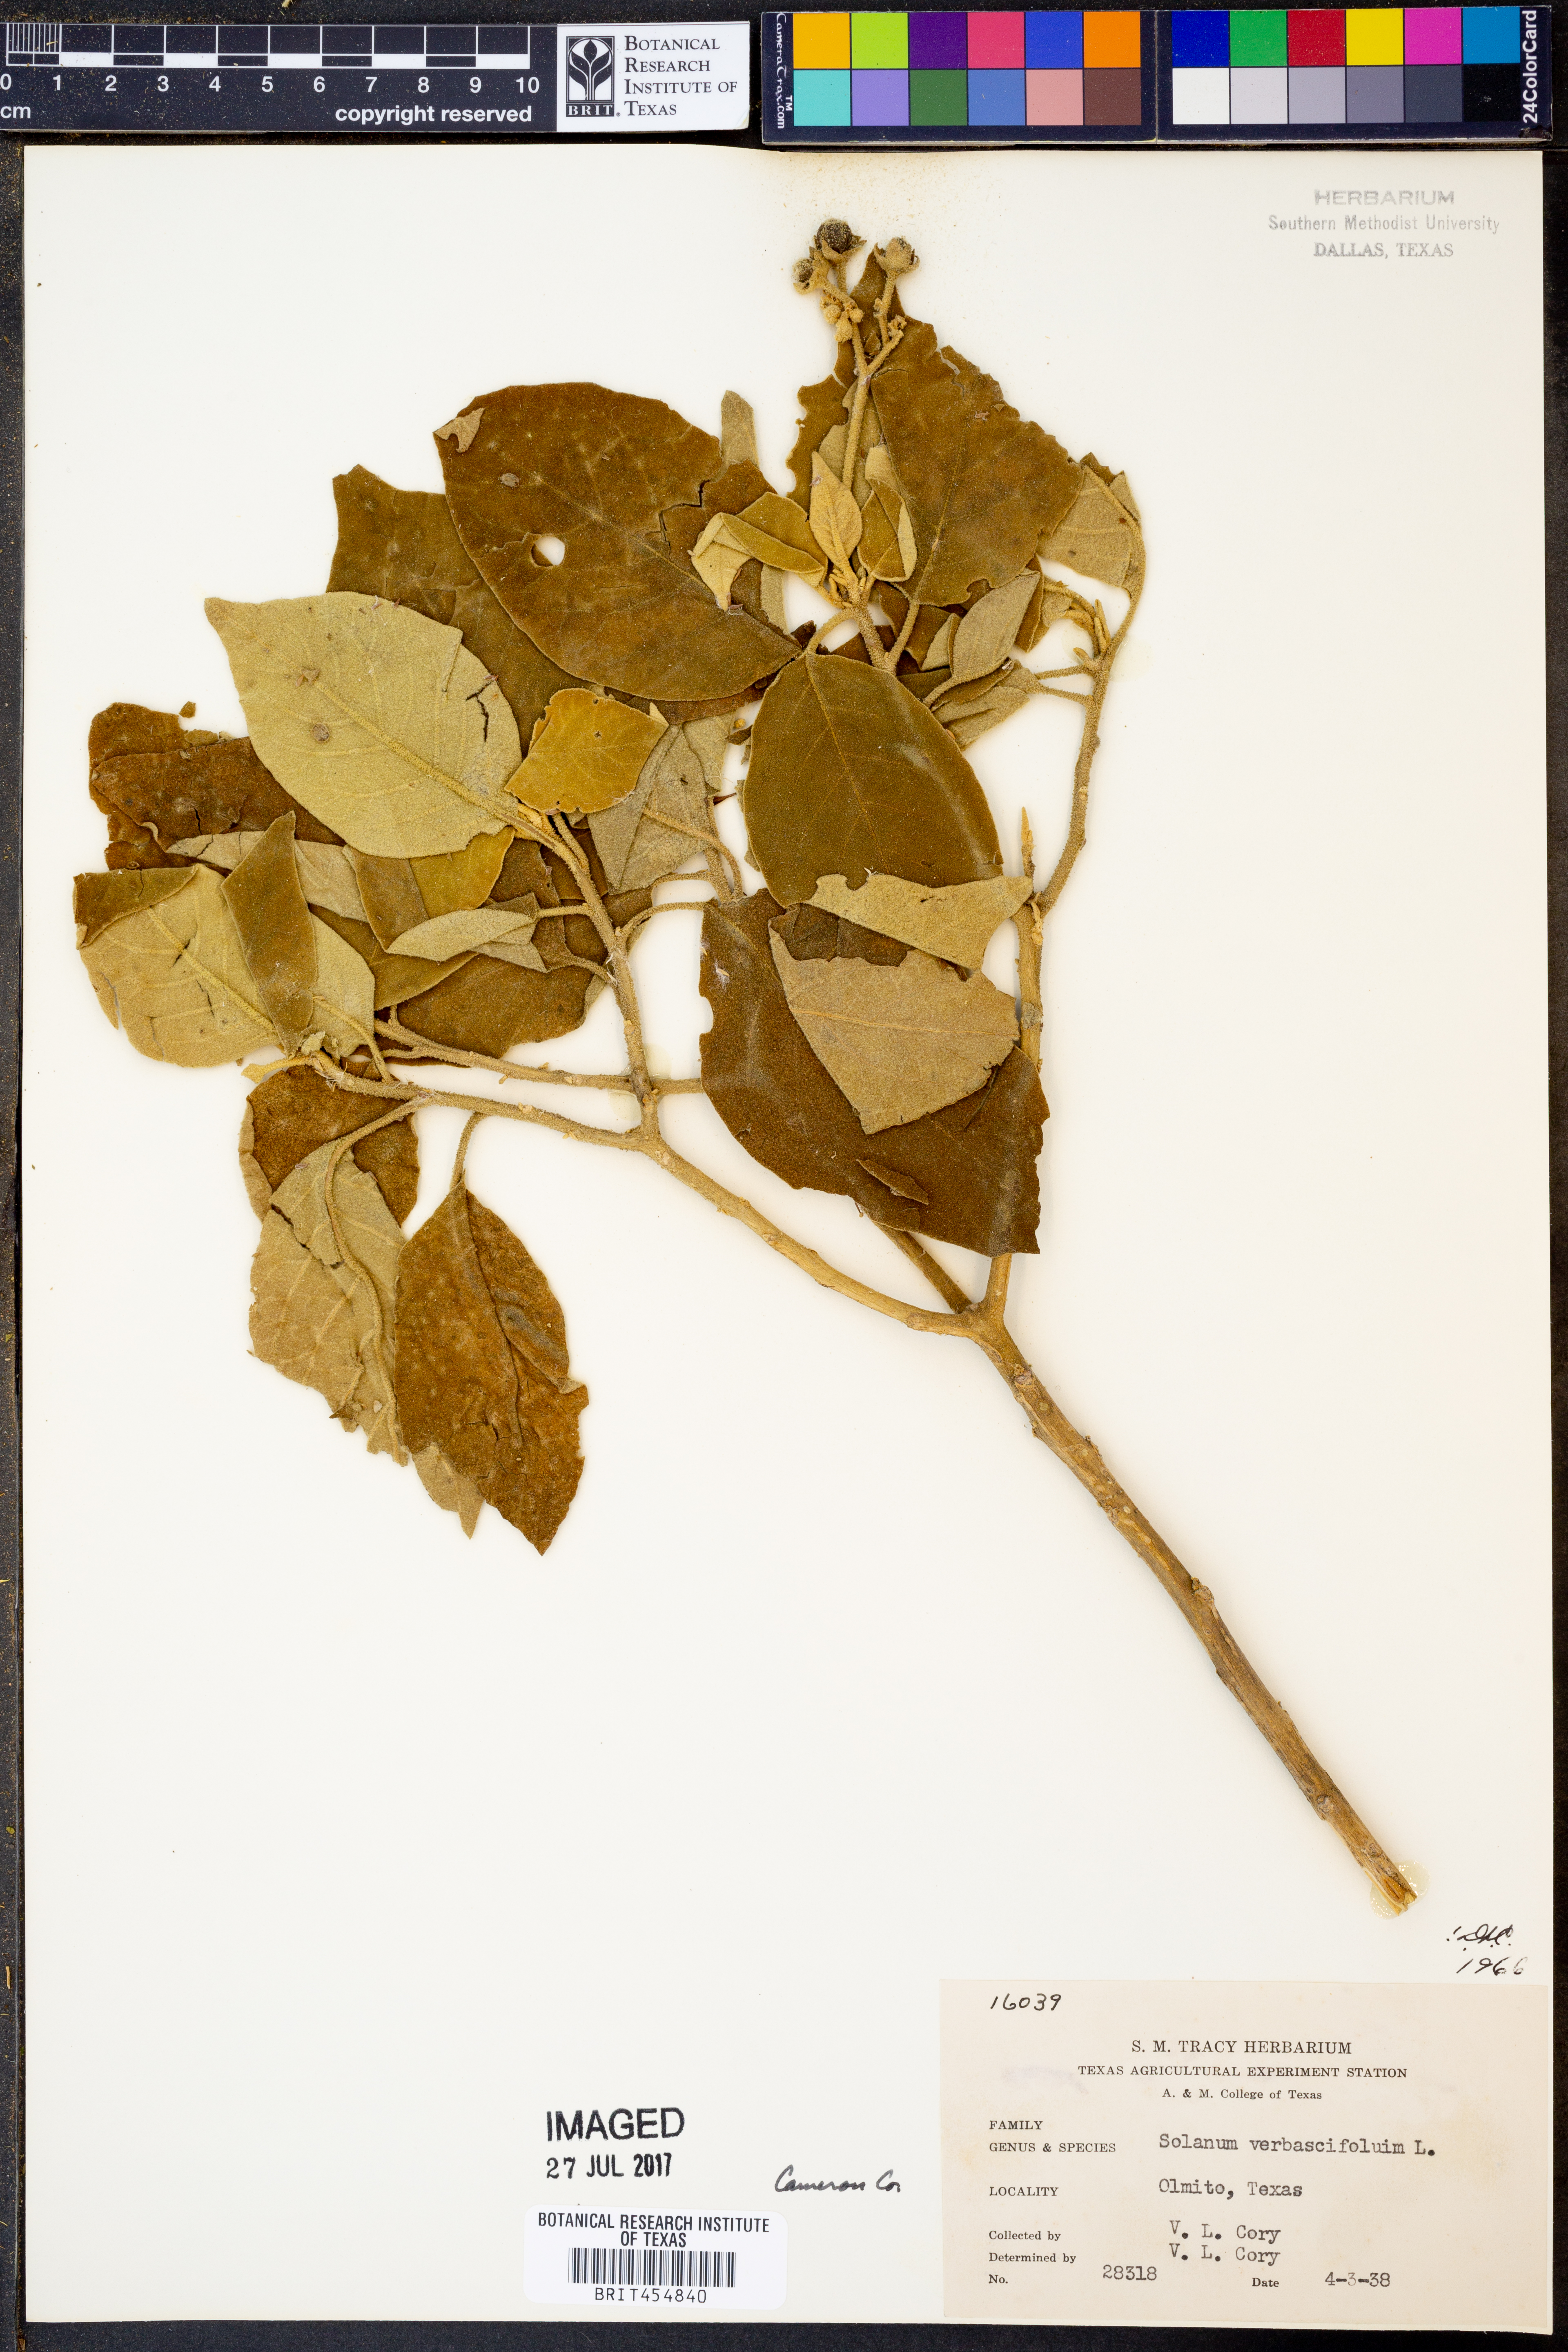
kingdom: Plantae
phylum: Tracheophyta
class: Magnoliopsida
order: Solanales
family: Solanaceae
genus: Solanum
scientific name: Solanum
